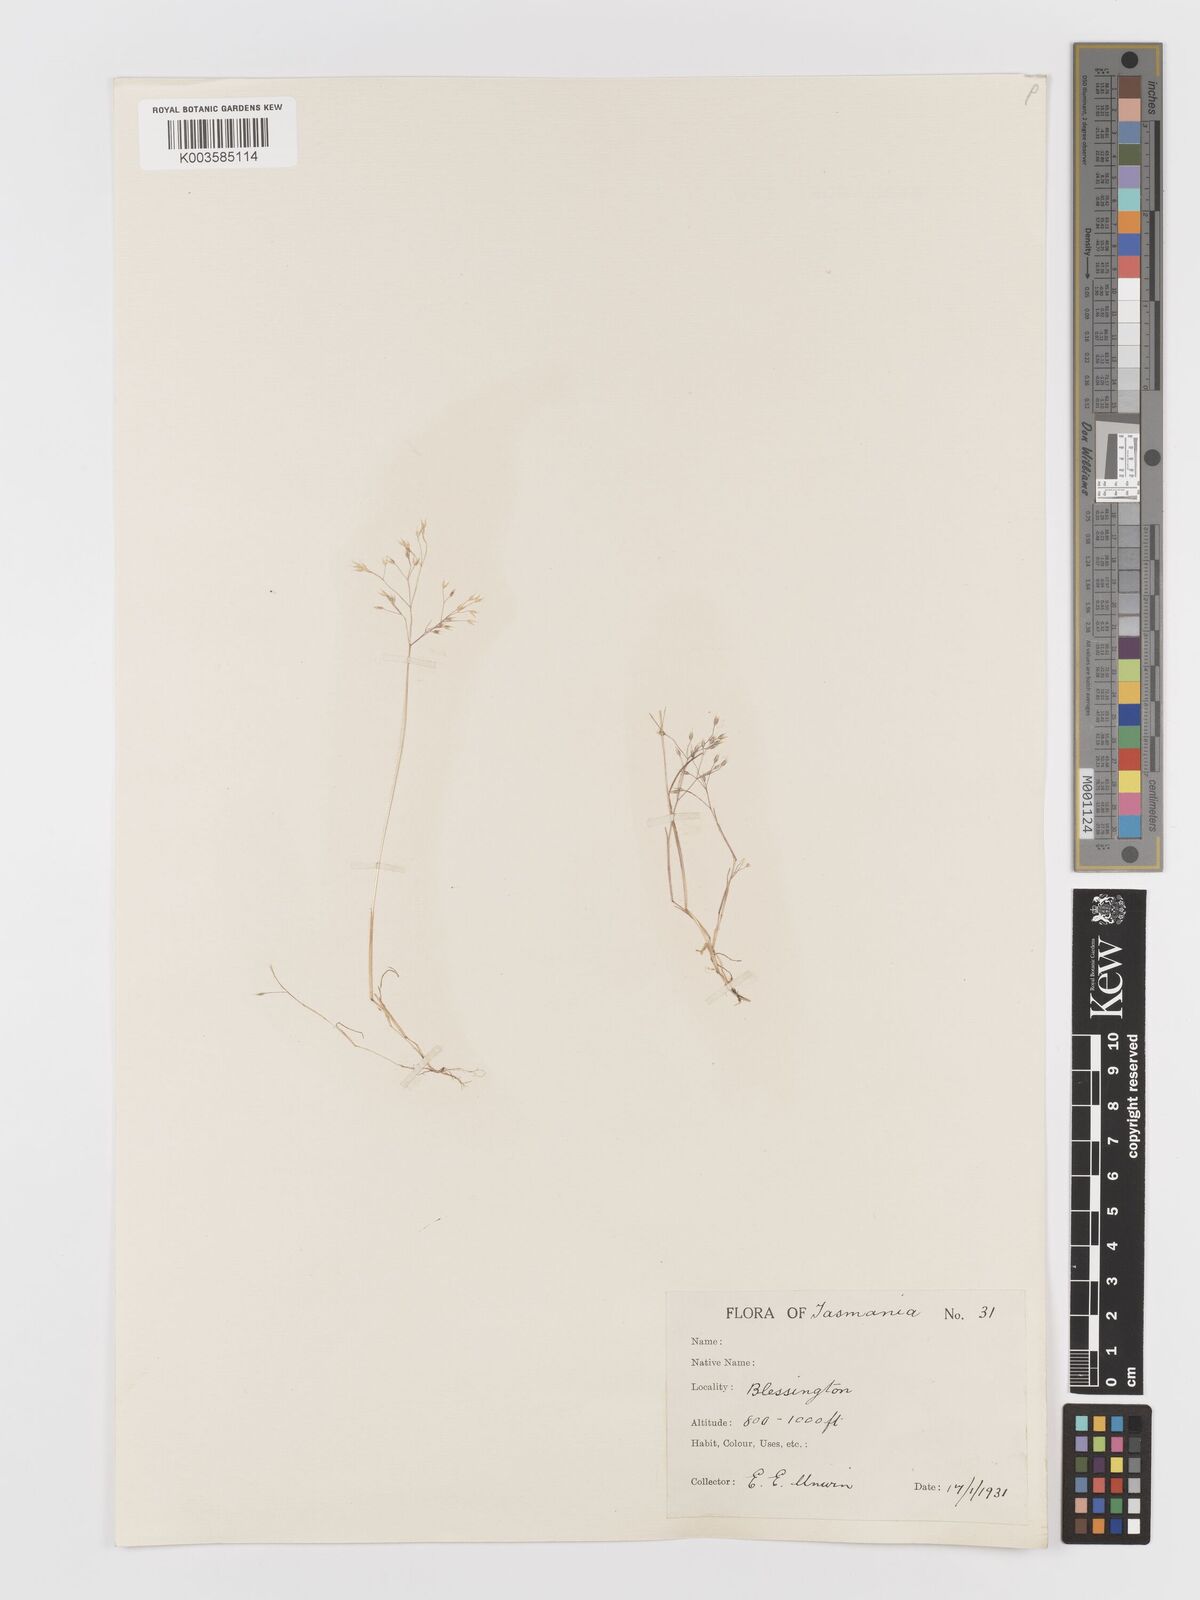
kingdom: Plantae
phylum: Tracheophyta
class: Liliopsida
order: Poales
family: Poaceae
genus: Aira
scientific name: Aira caryophyllea
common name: Silver hairgrass
